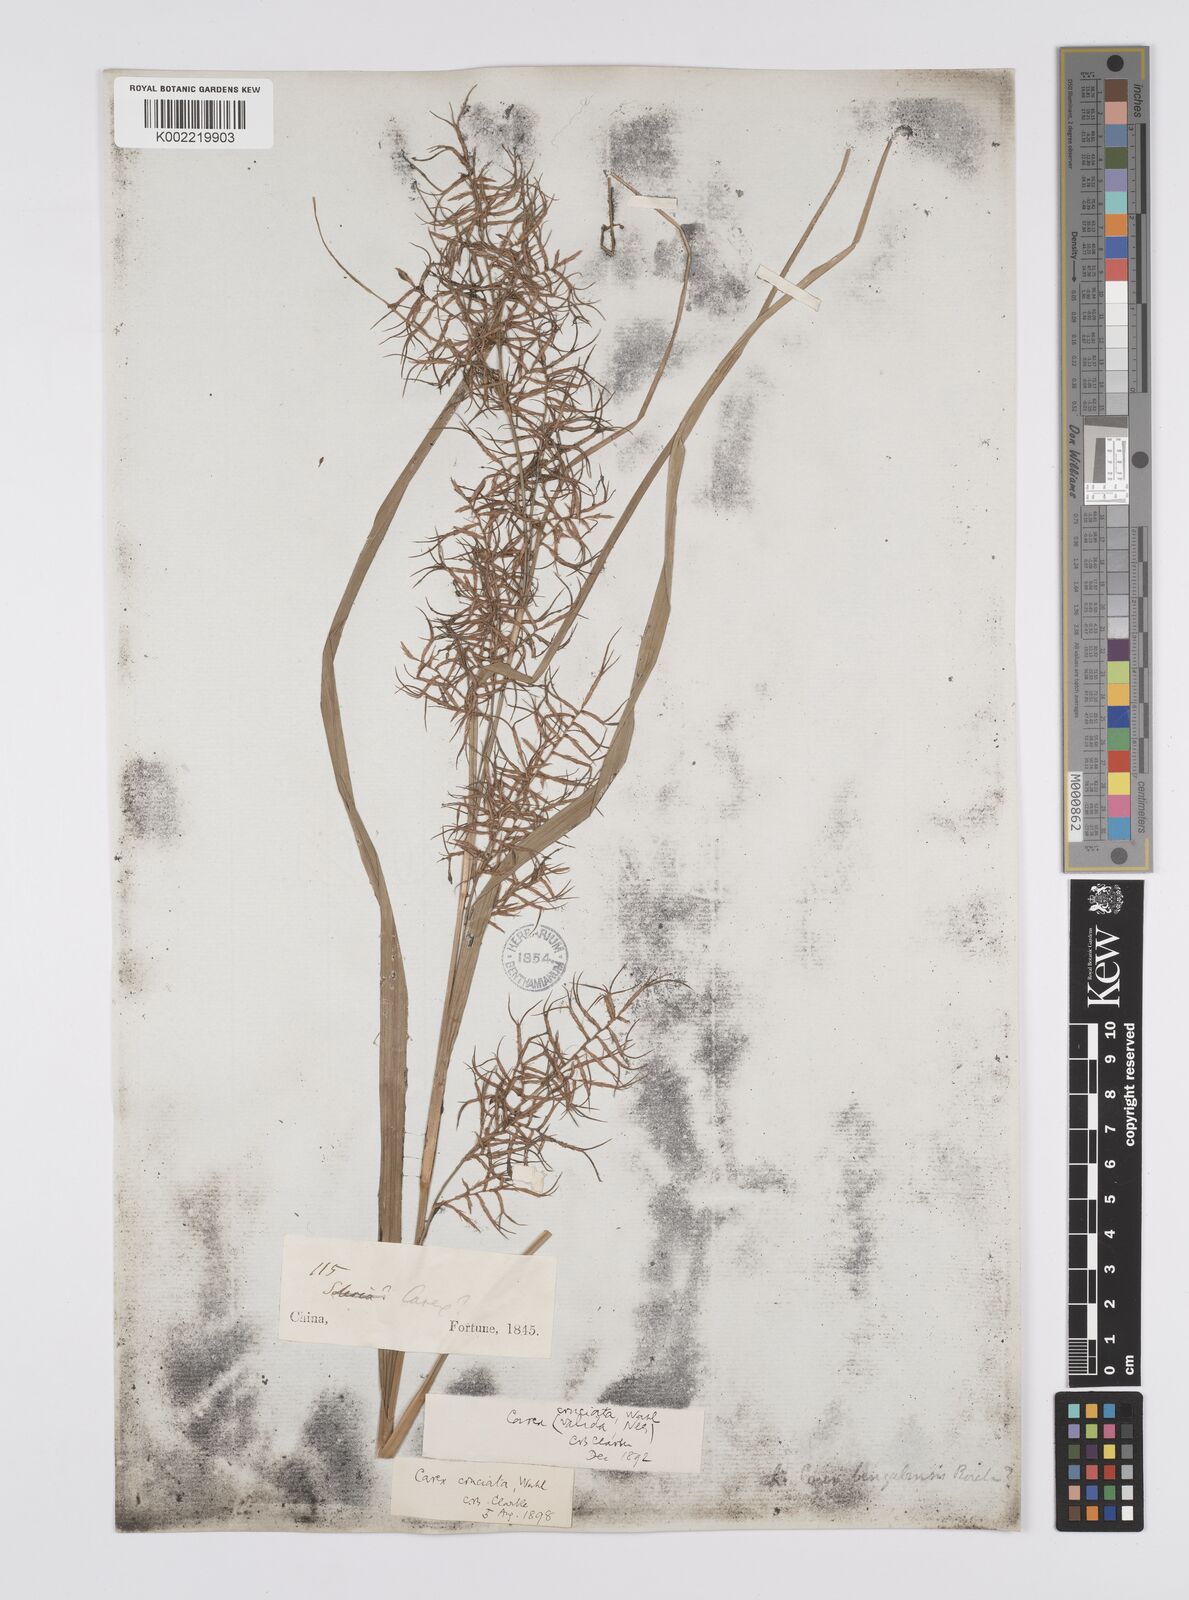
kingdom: Plantae
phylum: Tracheophyta
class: Liliopsida
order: Poales
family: Cyperaceae
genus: Carex
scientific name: Carex cruciata
